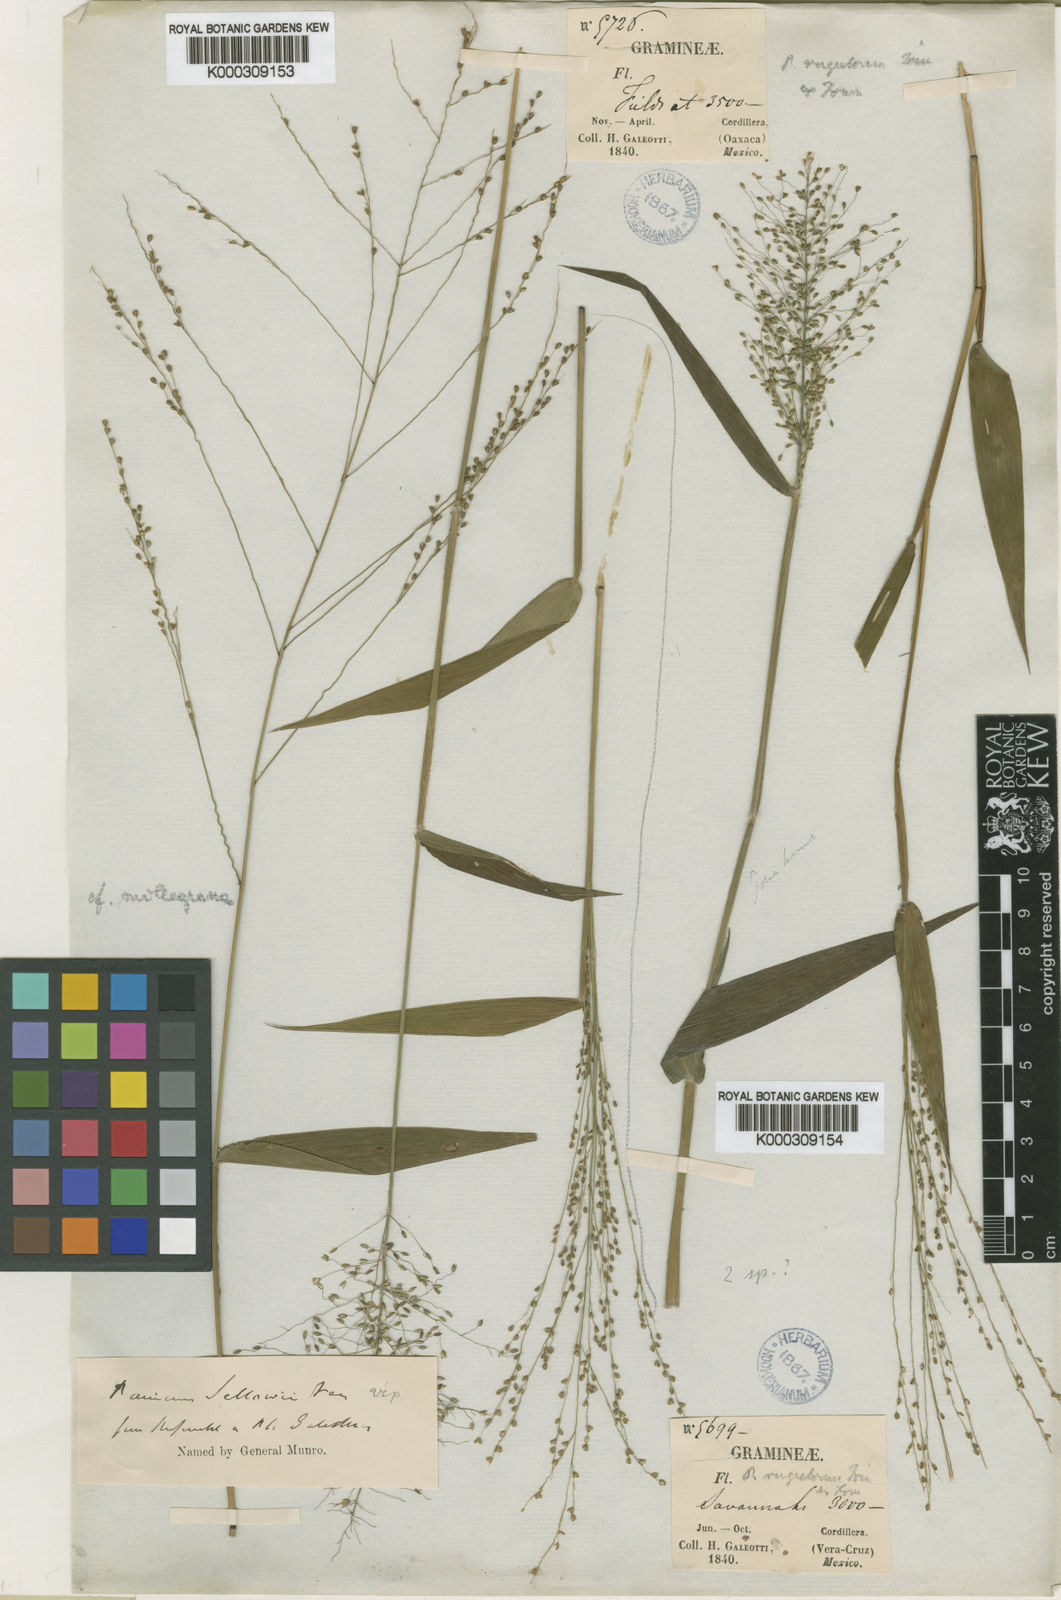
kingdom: Plantae
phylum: Tracheophyta
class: Liliopsida
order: Poales
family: Poaceae
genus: Panicum
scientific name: Panicum millegrana
